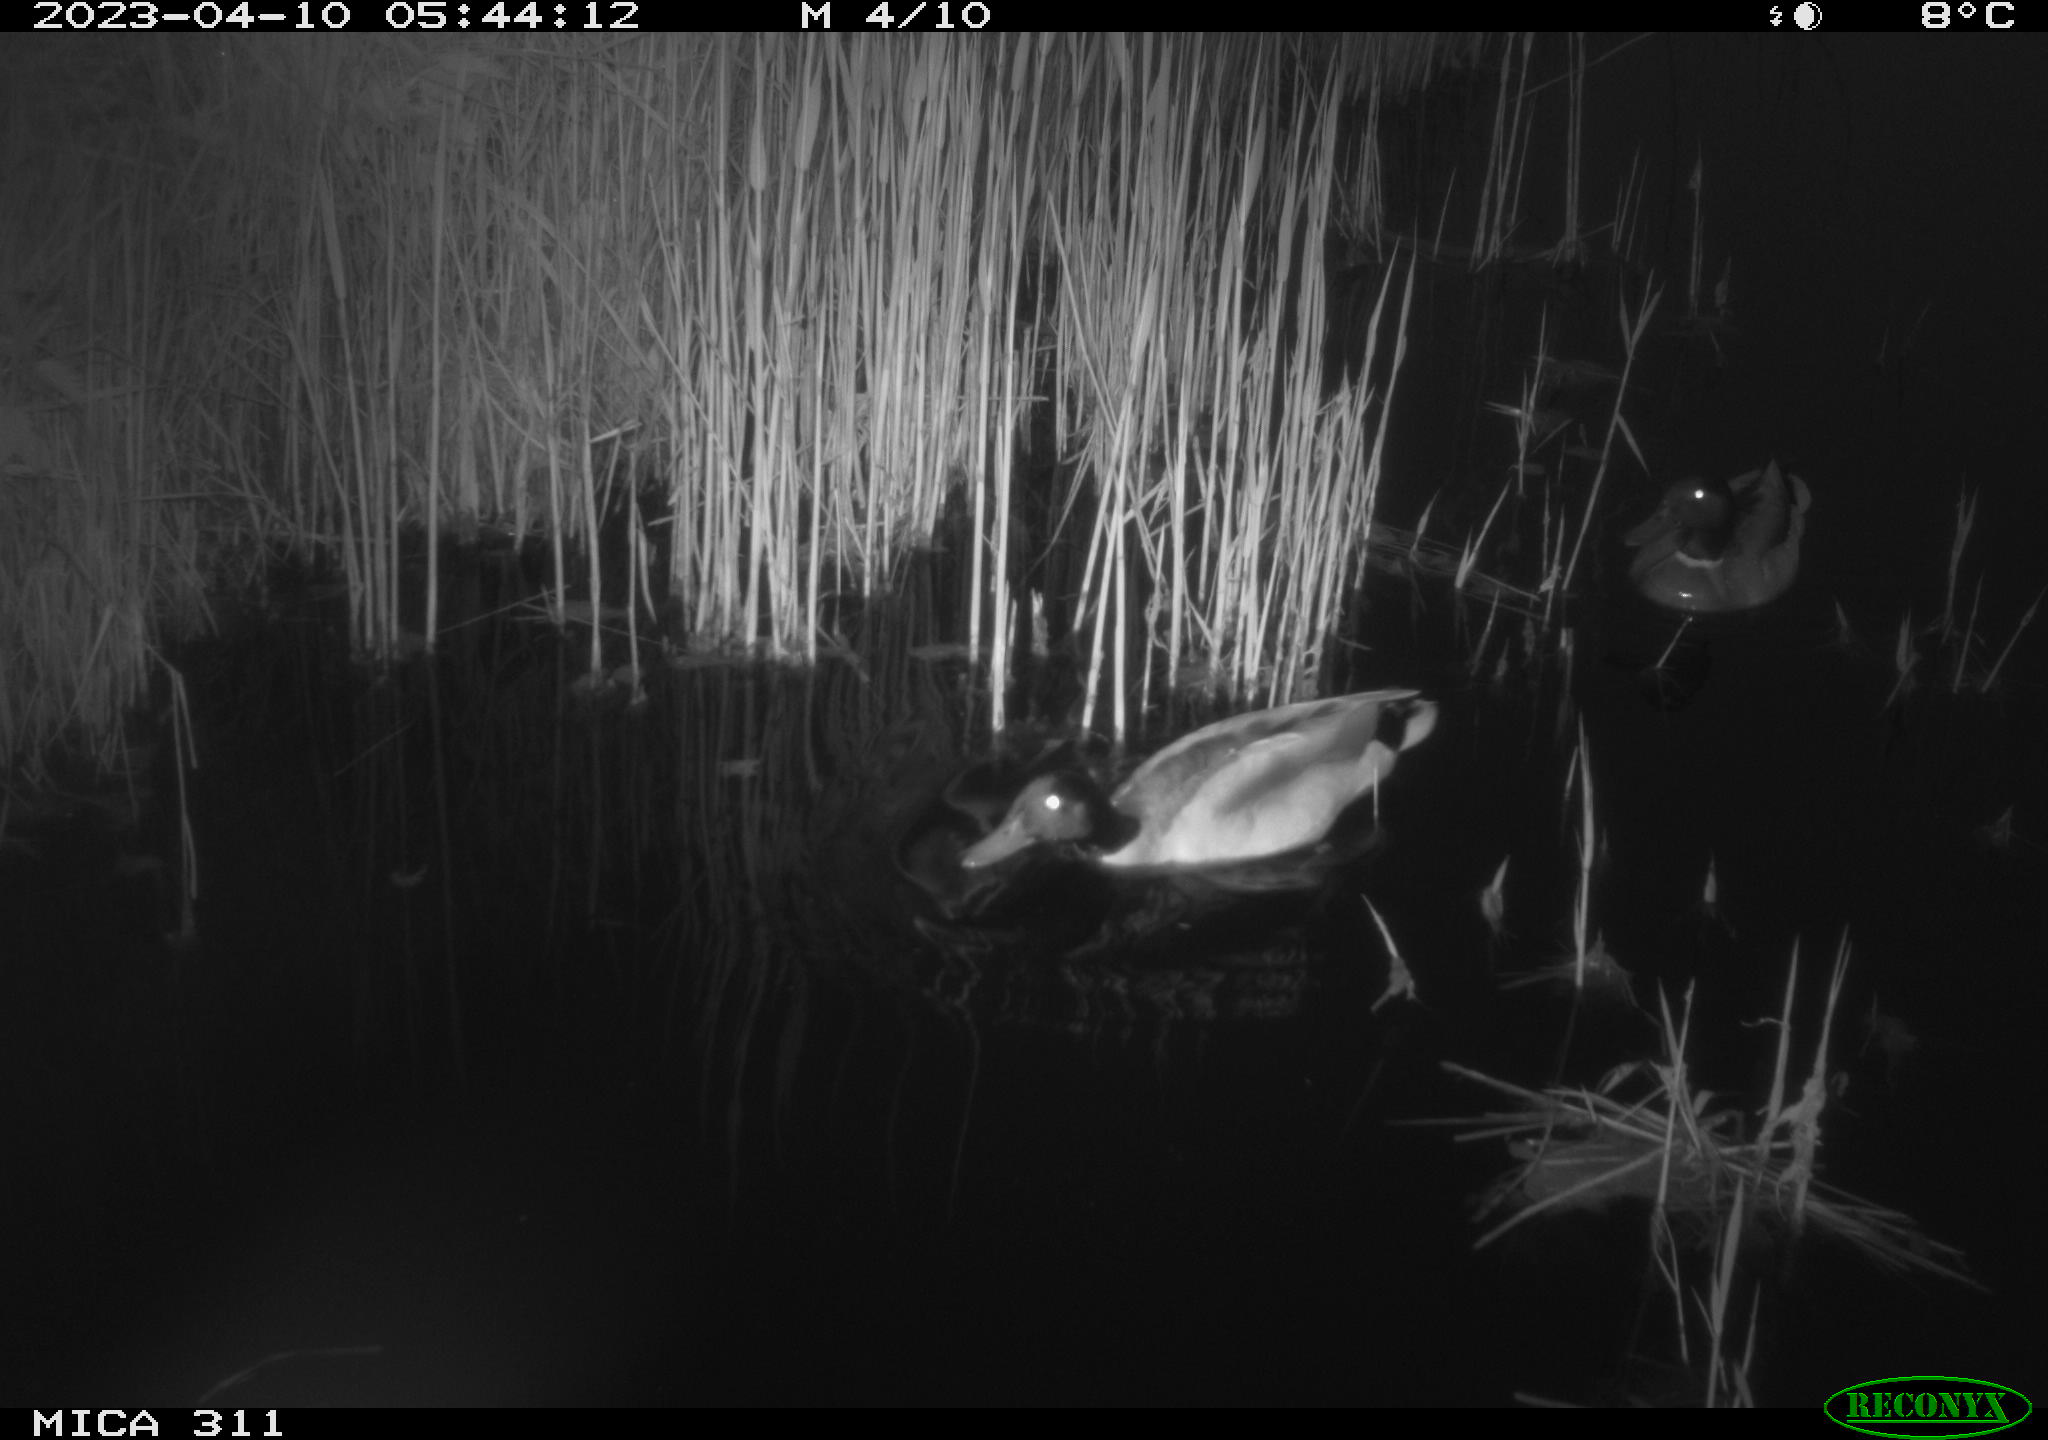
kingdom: Animalia
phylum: Chordata
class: Aves
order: Anseriformes
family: Anatidae
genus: Anas
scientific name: Anas
